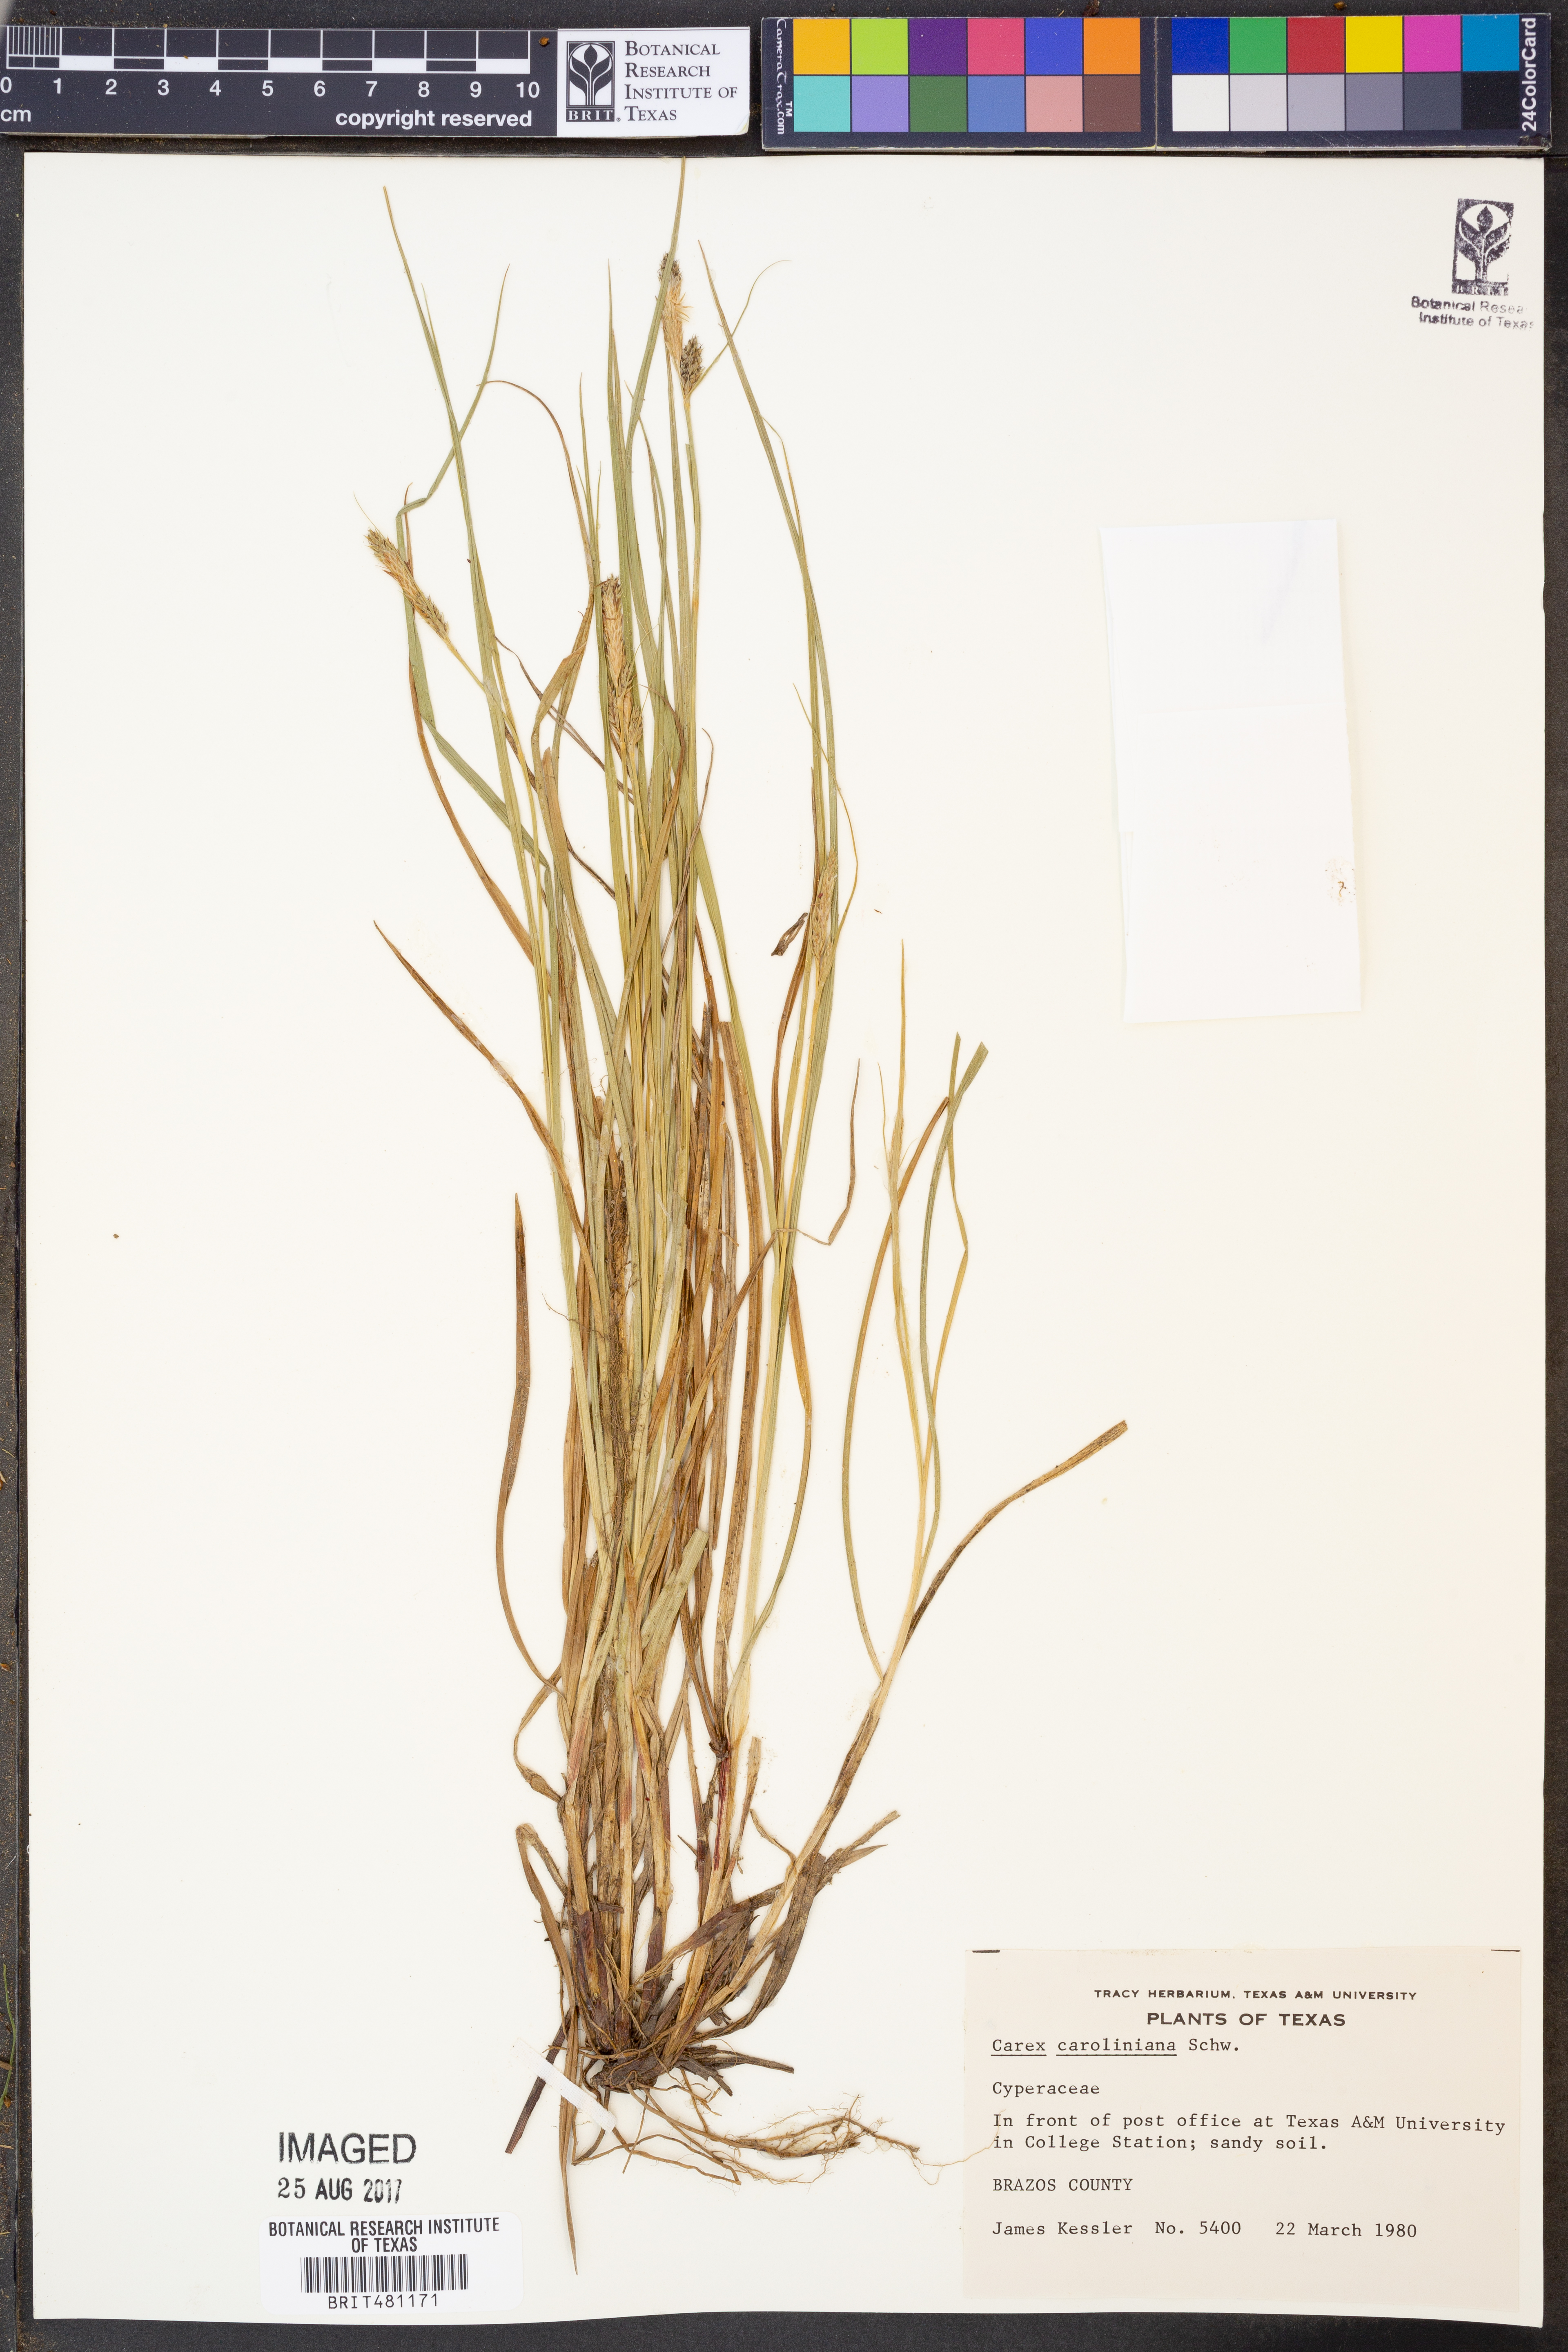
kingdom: Plantae
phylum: Tracheophyta
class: Liliopsida
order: Poales
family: Cyperaceae
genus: Carex
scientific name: Carex caroliniana
